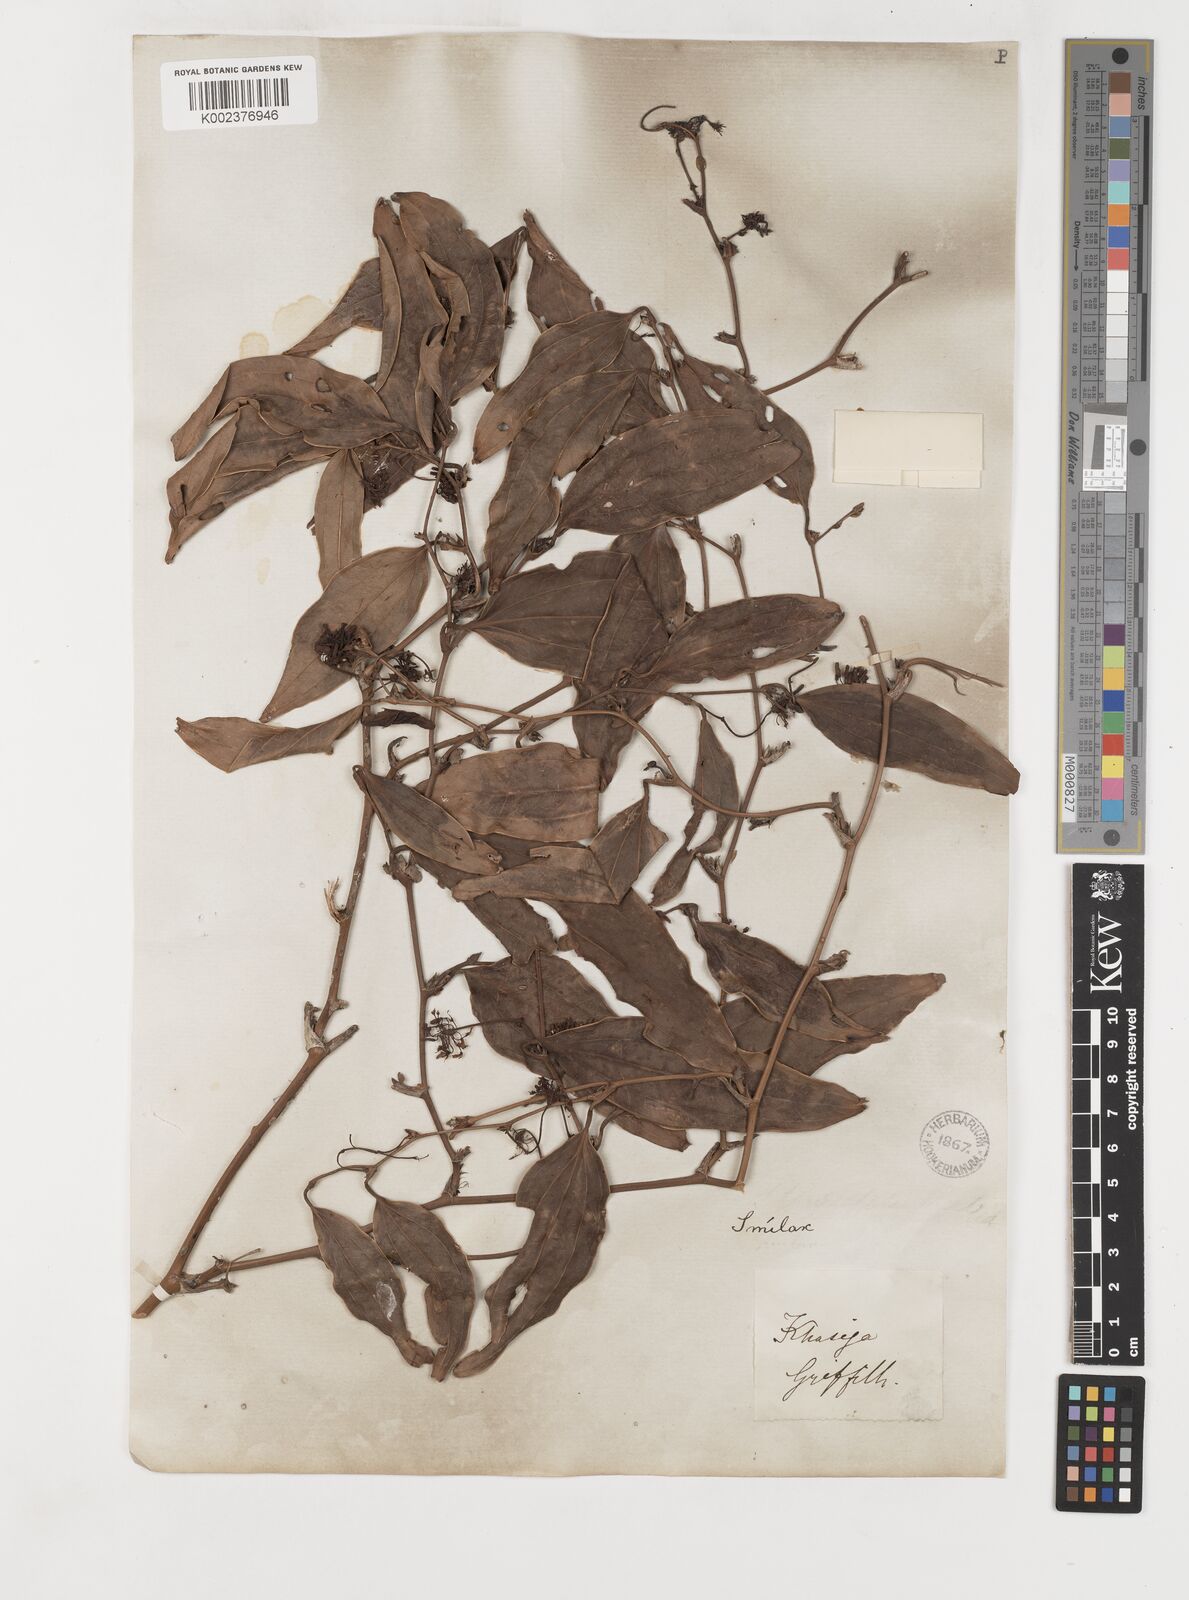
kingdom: Plantae
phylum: Tracheophyta
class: Liliopsida
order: Liliales
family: Smilacaceae
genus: Smilax
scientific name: Smilax zeylanica
